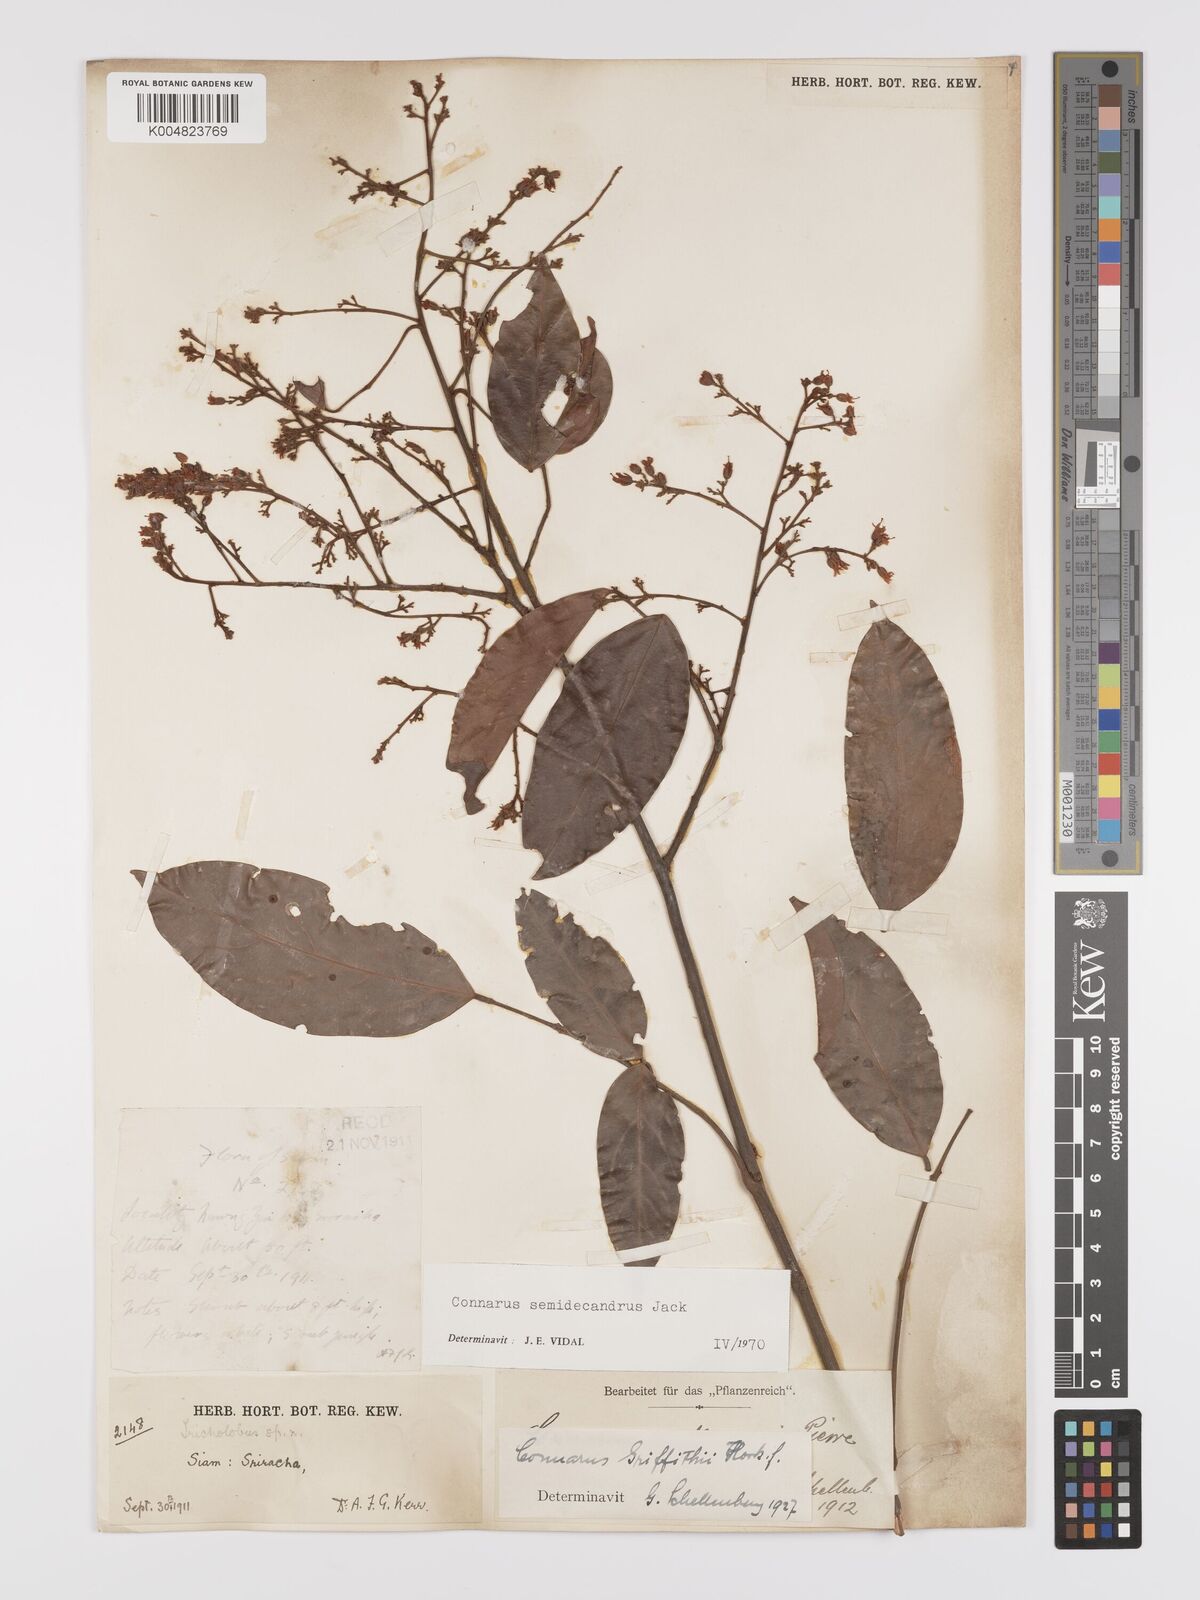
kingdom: Plantae
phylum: Tracheophyta
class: Magnoliopsida
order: Oxalidales
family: Connaraceae
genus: Connarus
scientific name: Connarus semidecandrus
